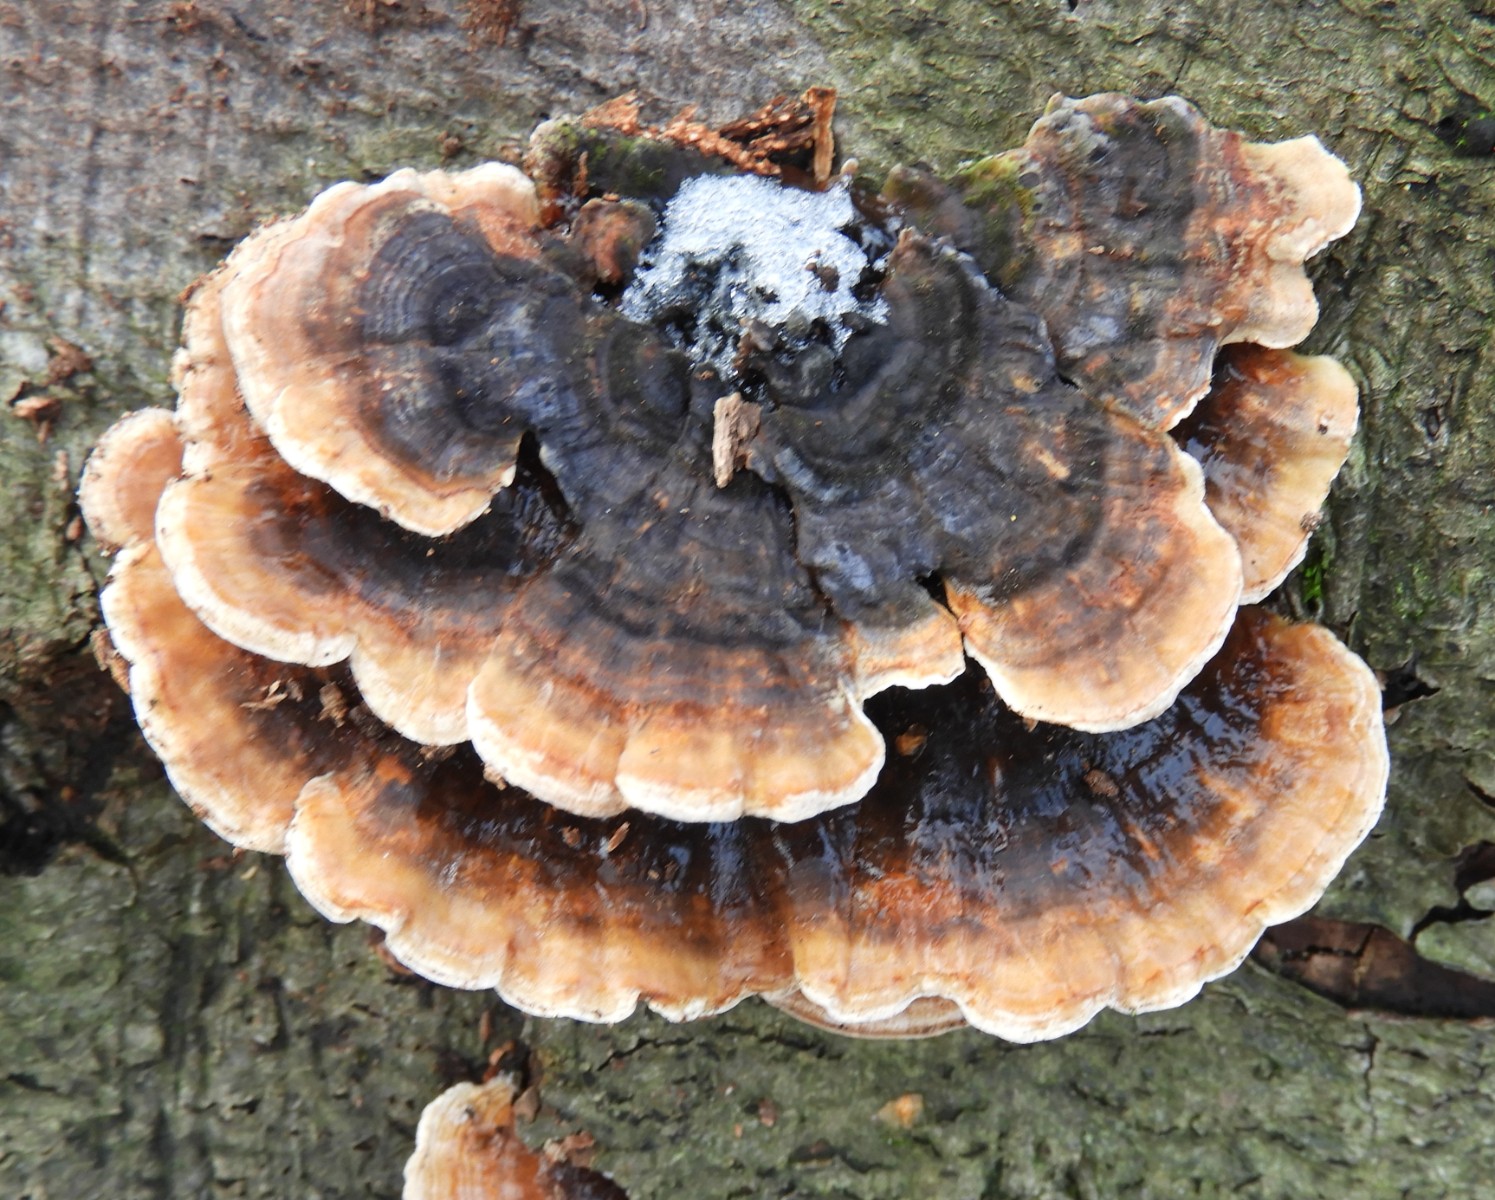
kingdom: Fungi
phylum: Basidiomycota
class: Agaricomycetes
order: Polyporales
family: Polyporaceae
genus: Trametes
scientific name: Trametes versicolor
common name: broget læderporesvamp
